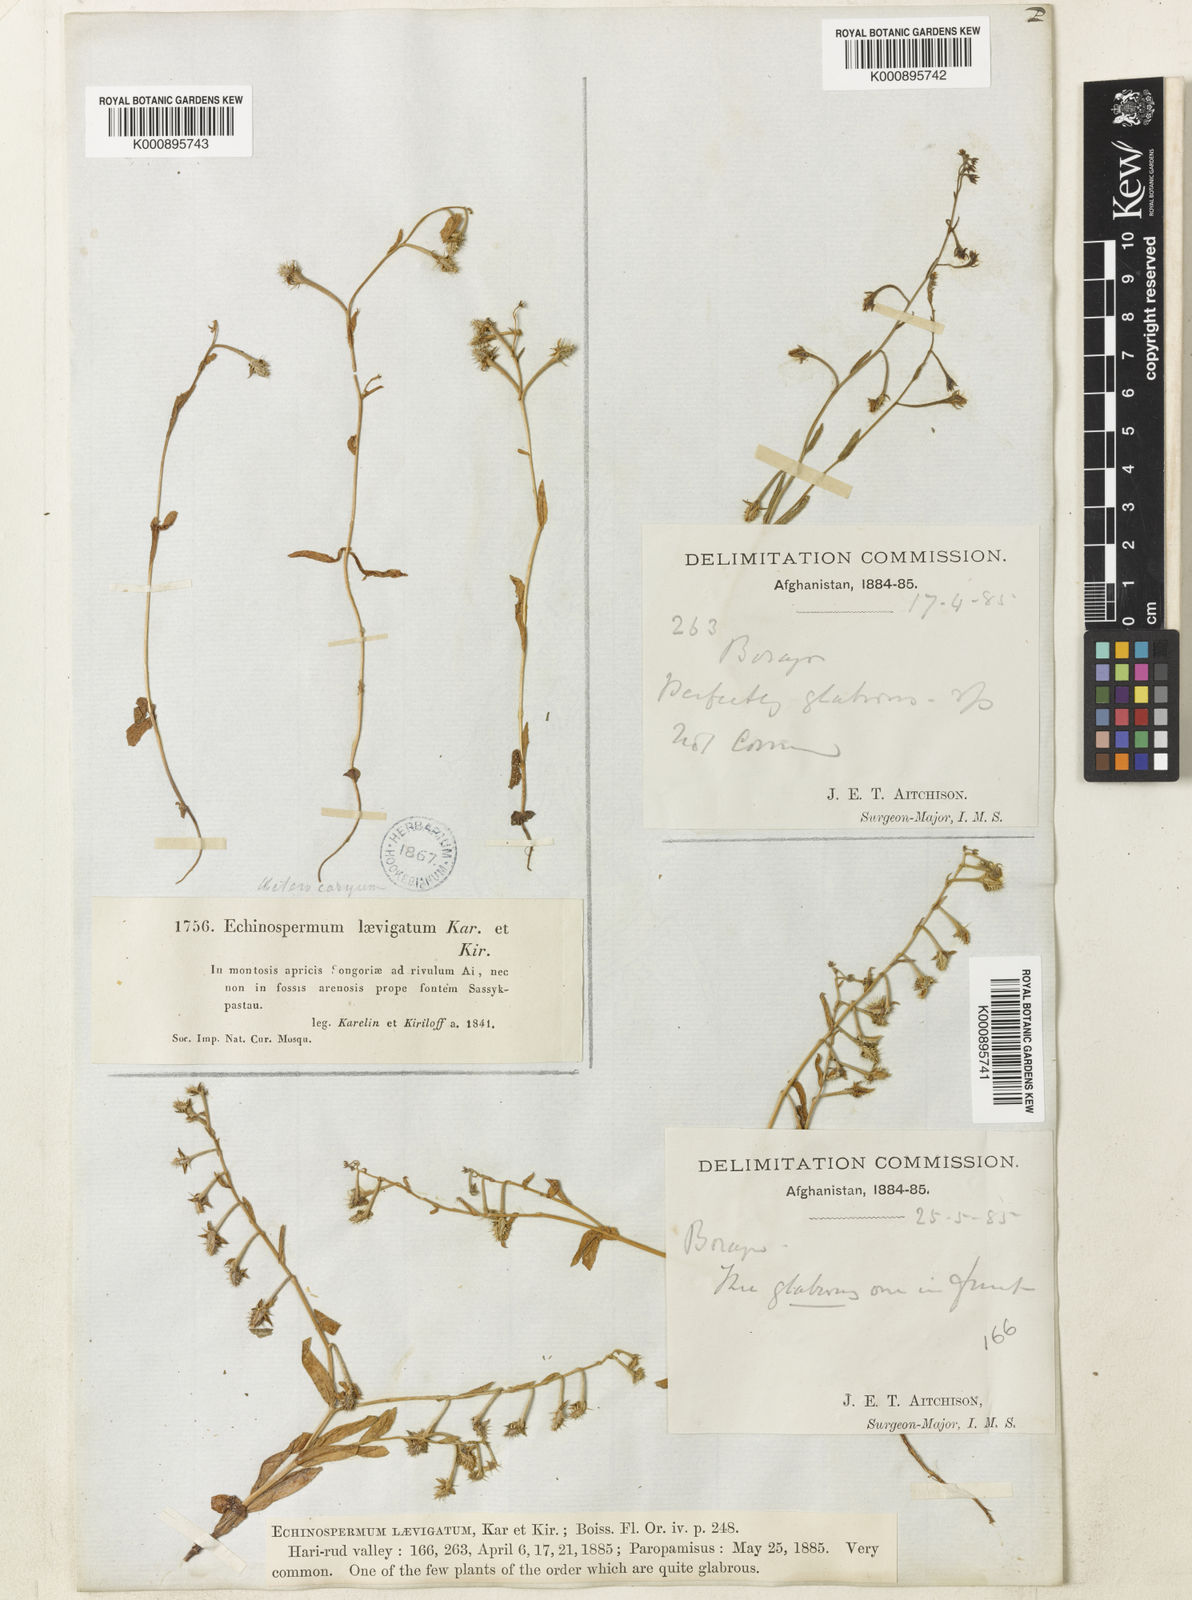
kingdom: Plantae
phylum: Tracheophyta
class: Magnoliopsida
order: Boraginales
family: Boraginaceae
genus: Heterocaryum
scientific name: Heterocaryum laevigatum
